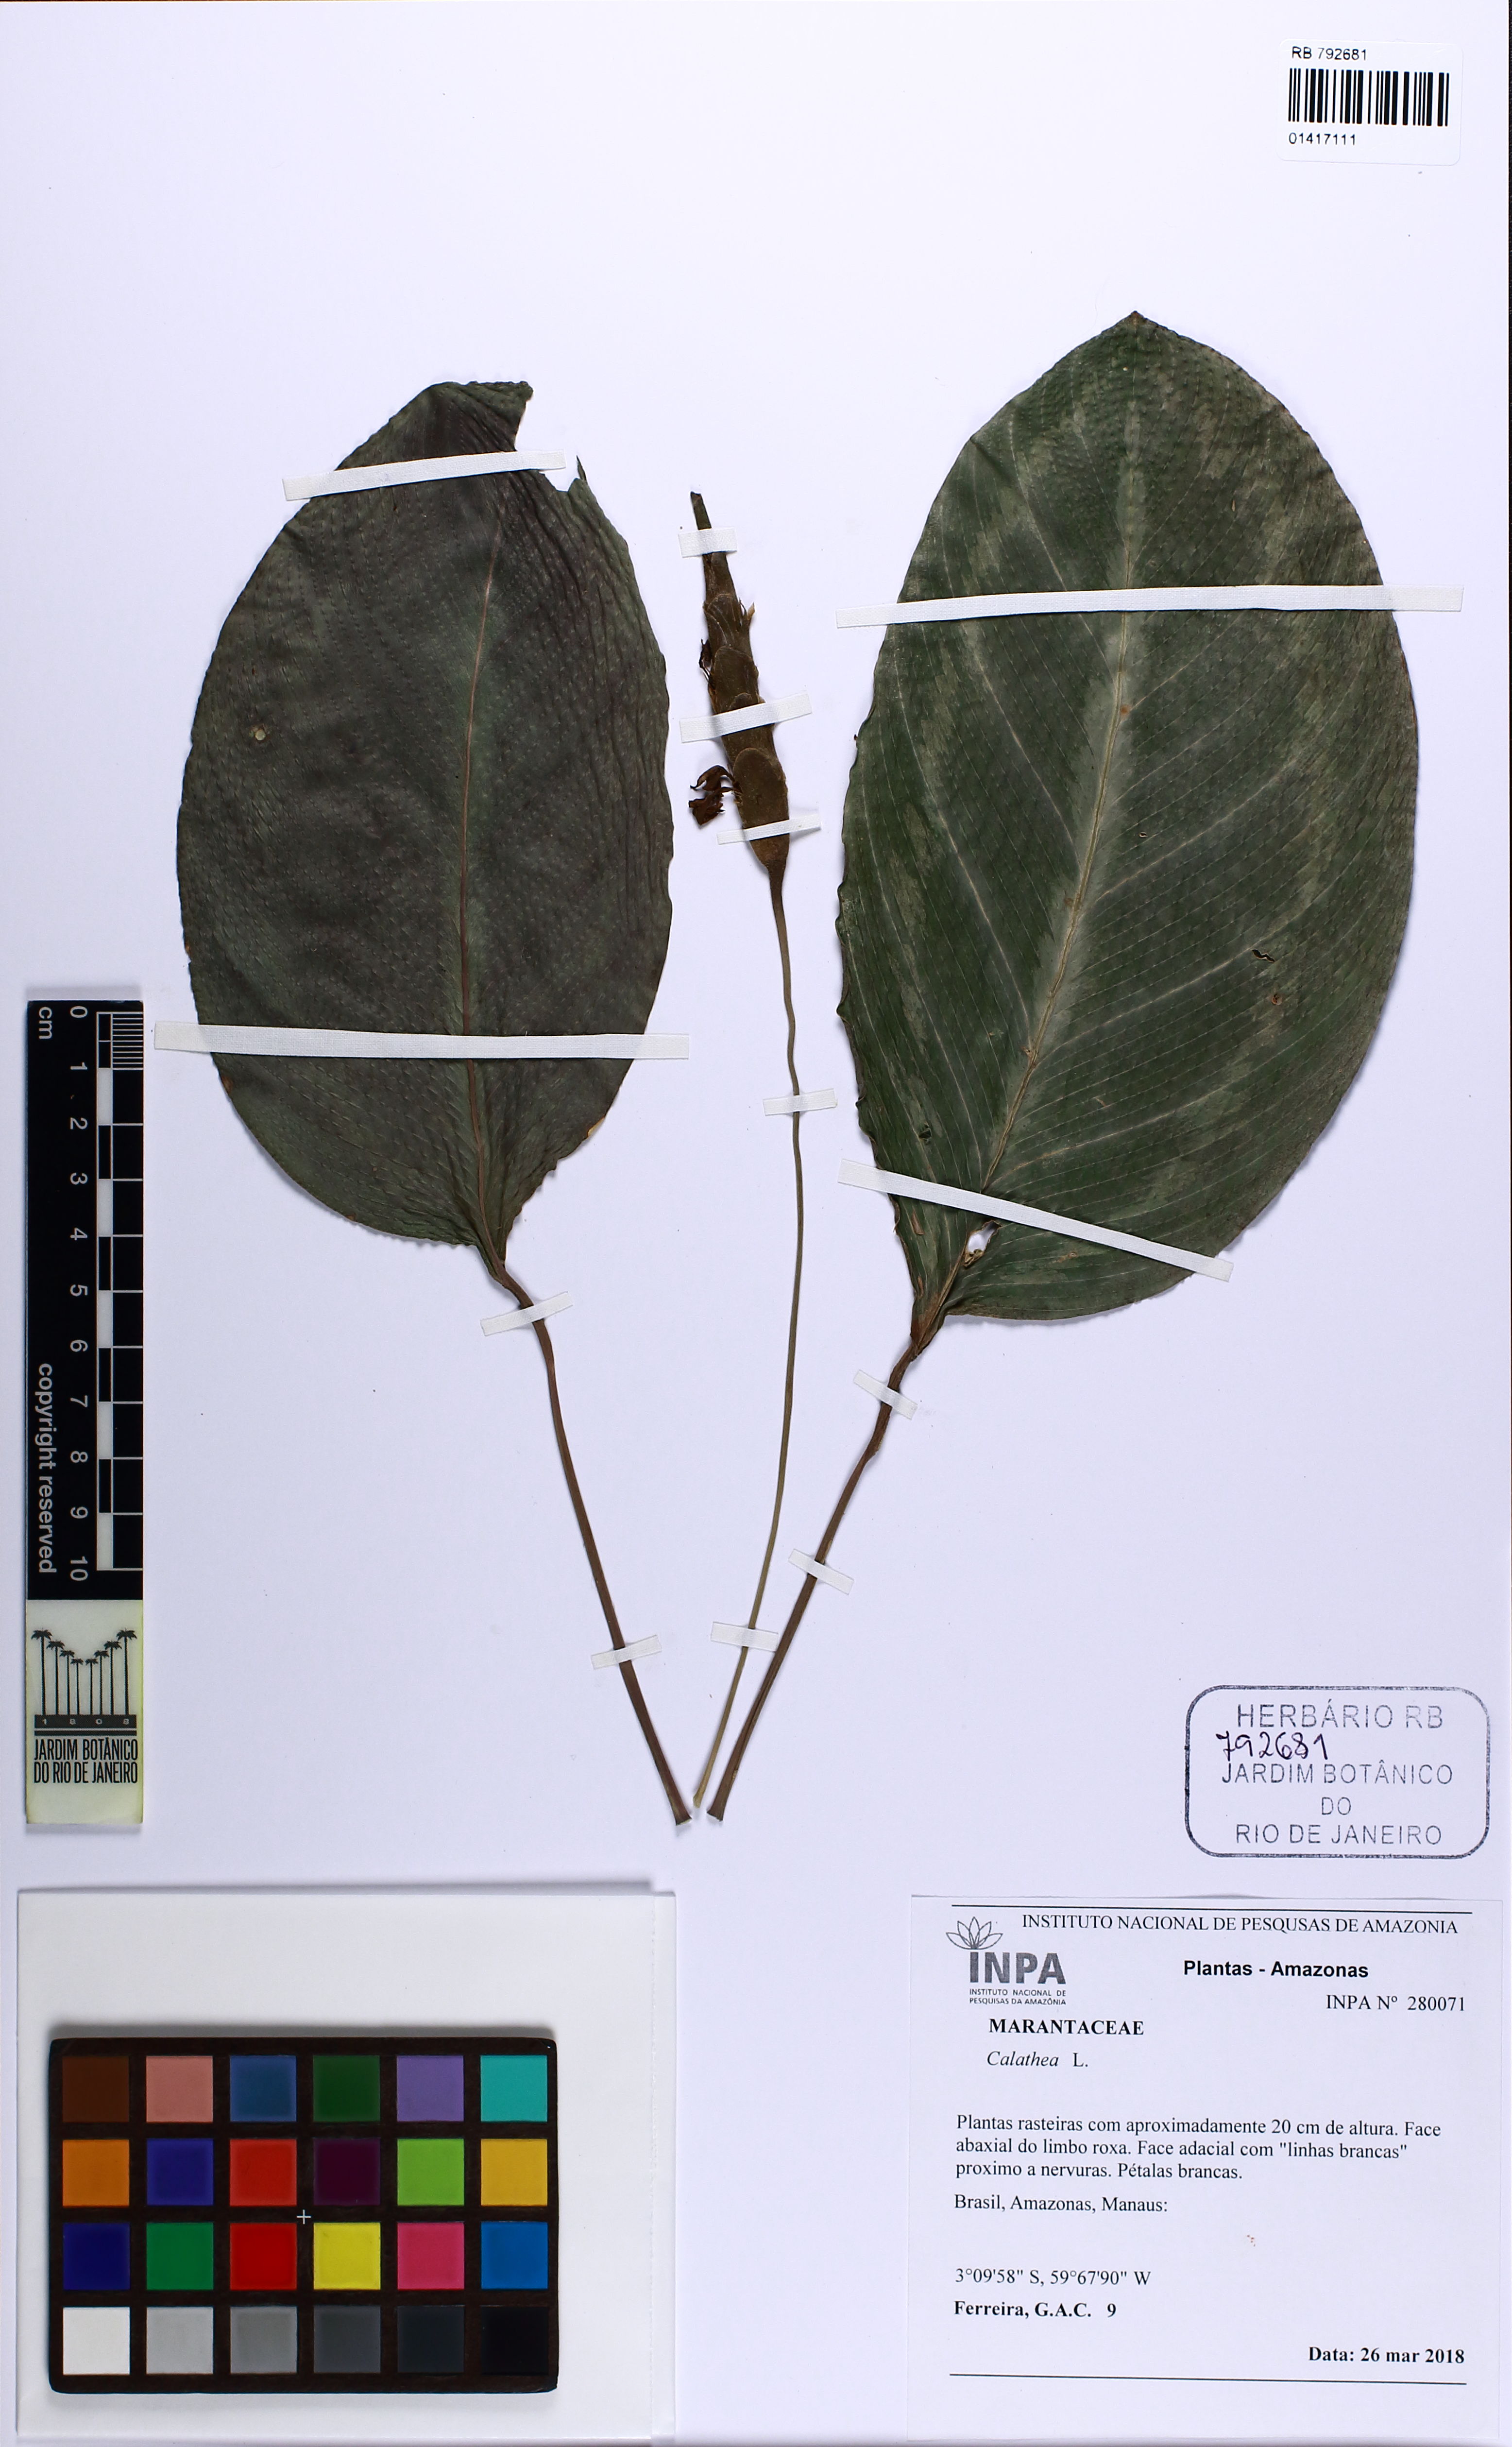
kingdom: Plantae
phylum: Tracheophyta
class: Liliopsida
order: Zingiberales
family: Marantaceae
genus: Calathea
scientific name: Calathea
